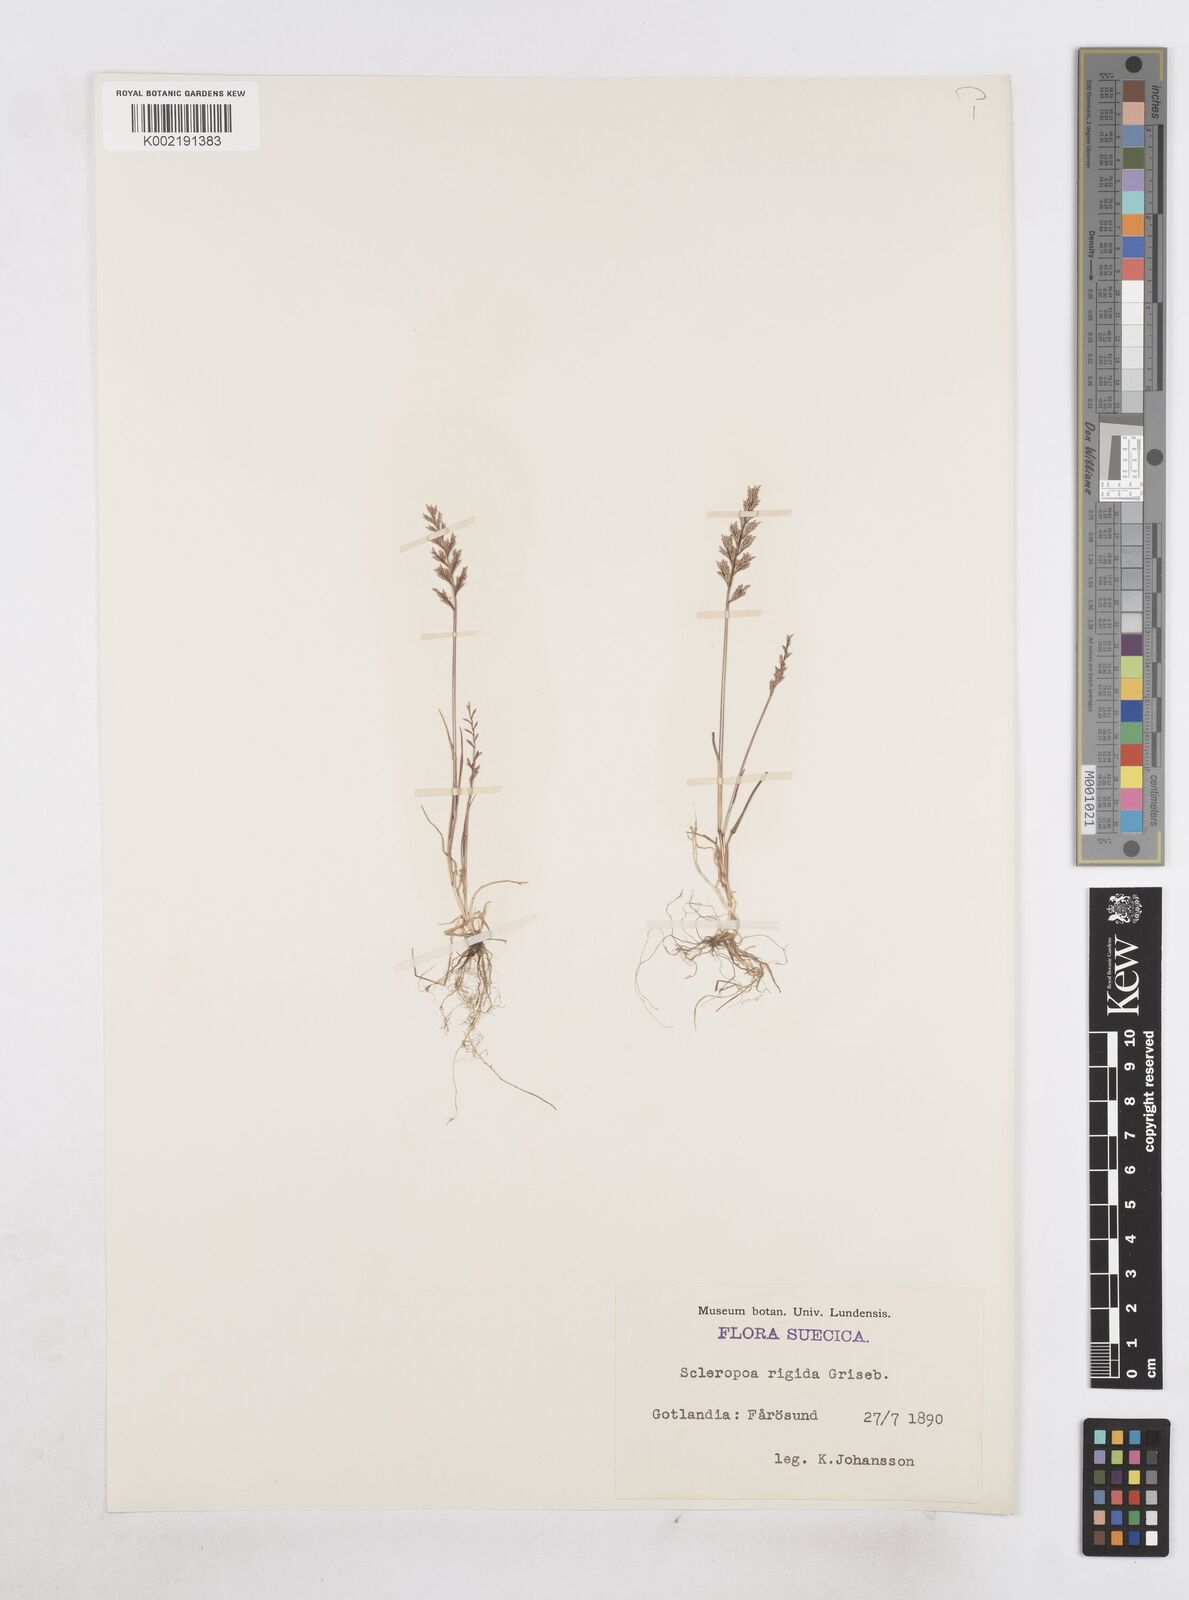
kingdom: Plantae
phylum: Tracheophyta
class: Liliopsida
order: Poales
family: Poaceae
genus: Catapodium
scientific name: Catapodium rigidum
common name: Fern-grass
